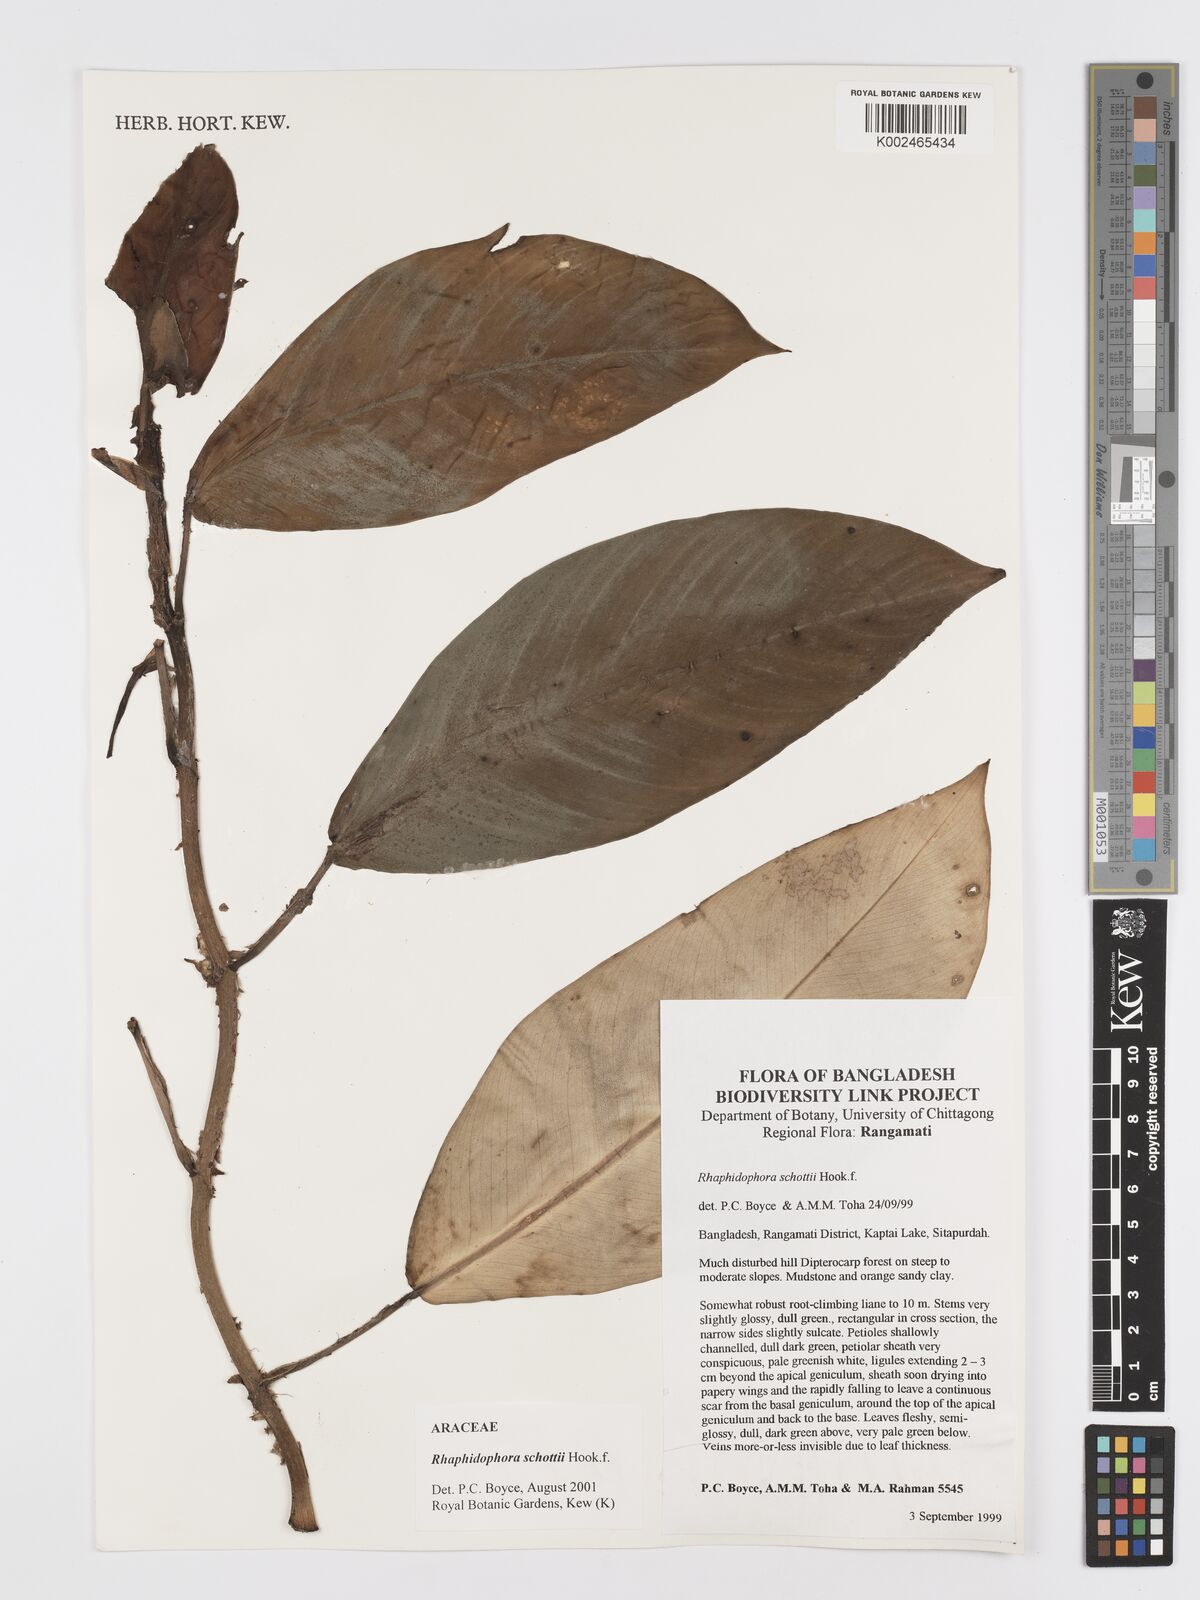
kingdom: Plantae
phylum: Tracheophyta
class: Liliopsida
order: Alismatales
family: Araceae
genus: Rhaphidophora
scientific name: Rhaphidophora schottii
